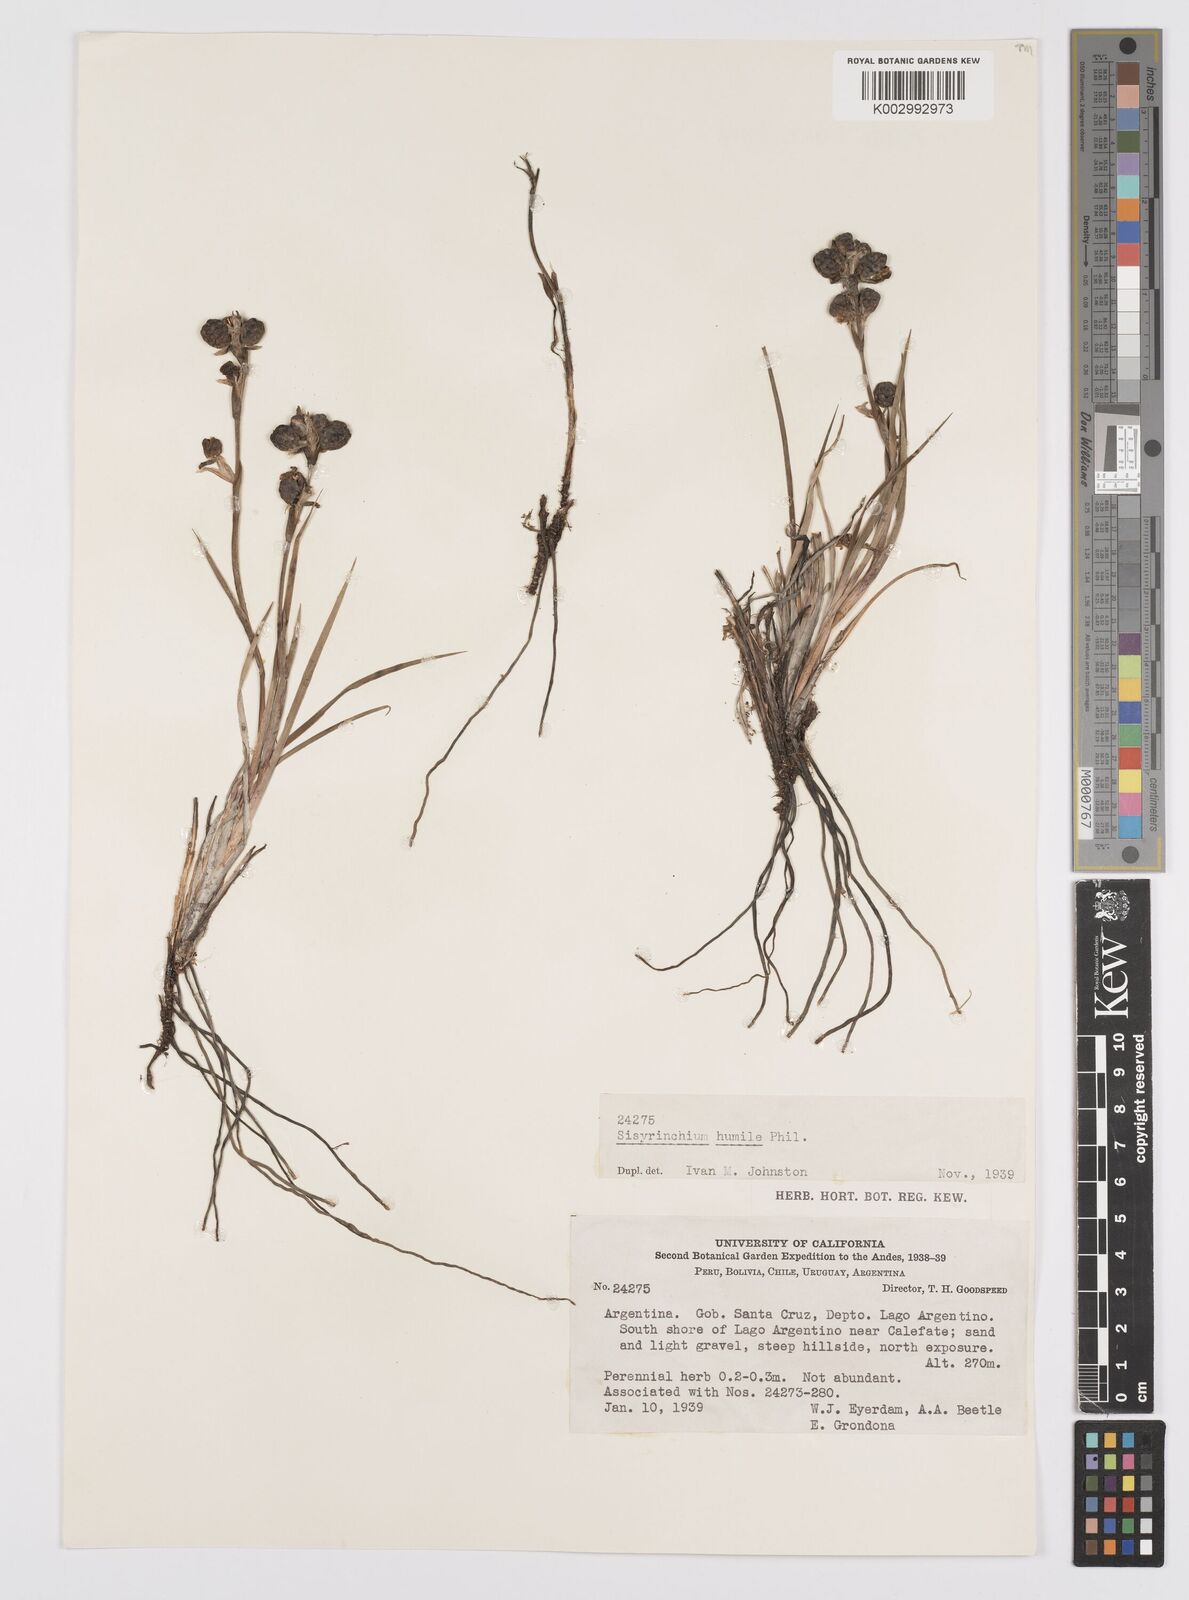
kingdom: Plantae
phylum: Tracheophyta
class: Liliopsida
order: Asparagales
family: Iridaceae
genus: Sisyrinchium
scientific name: Sisyrinchium arenarium
